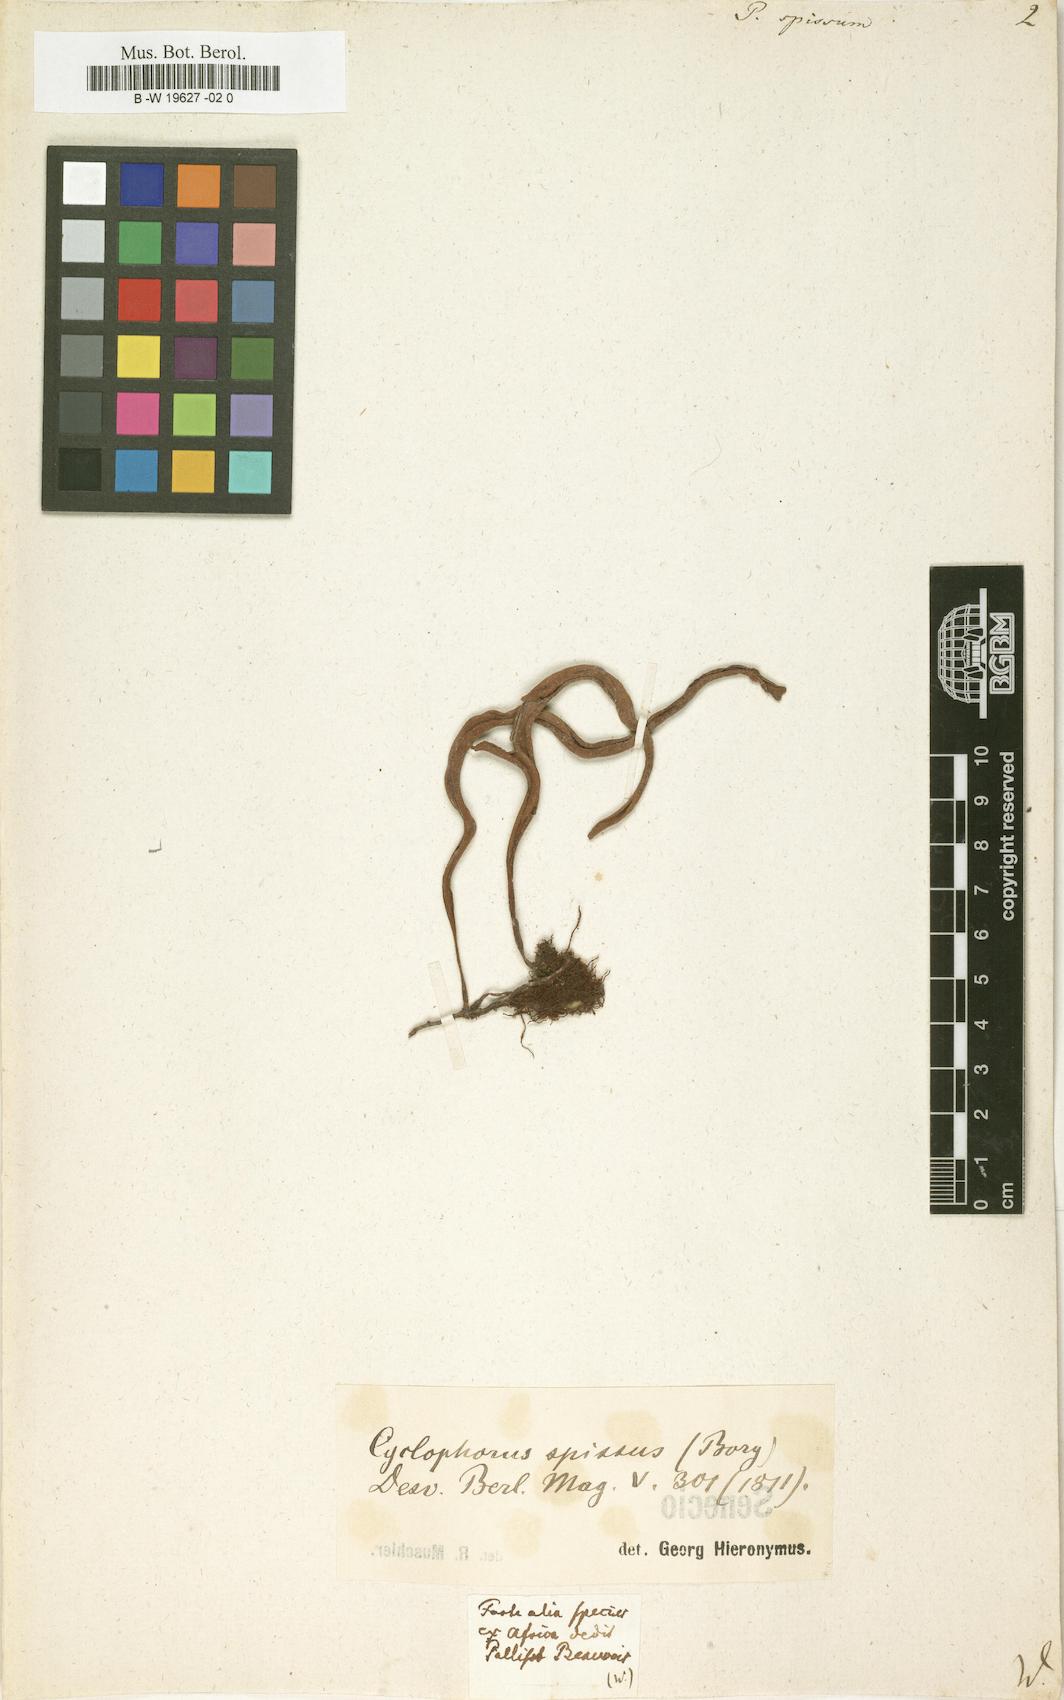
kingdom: Plantae
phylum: Tracheophyta
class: Polypodiopsida
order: Polypodiales
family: Polypodiaceae
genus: Polypodium
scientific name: Polypodium spissum
